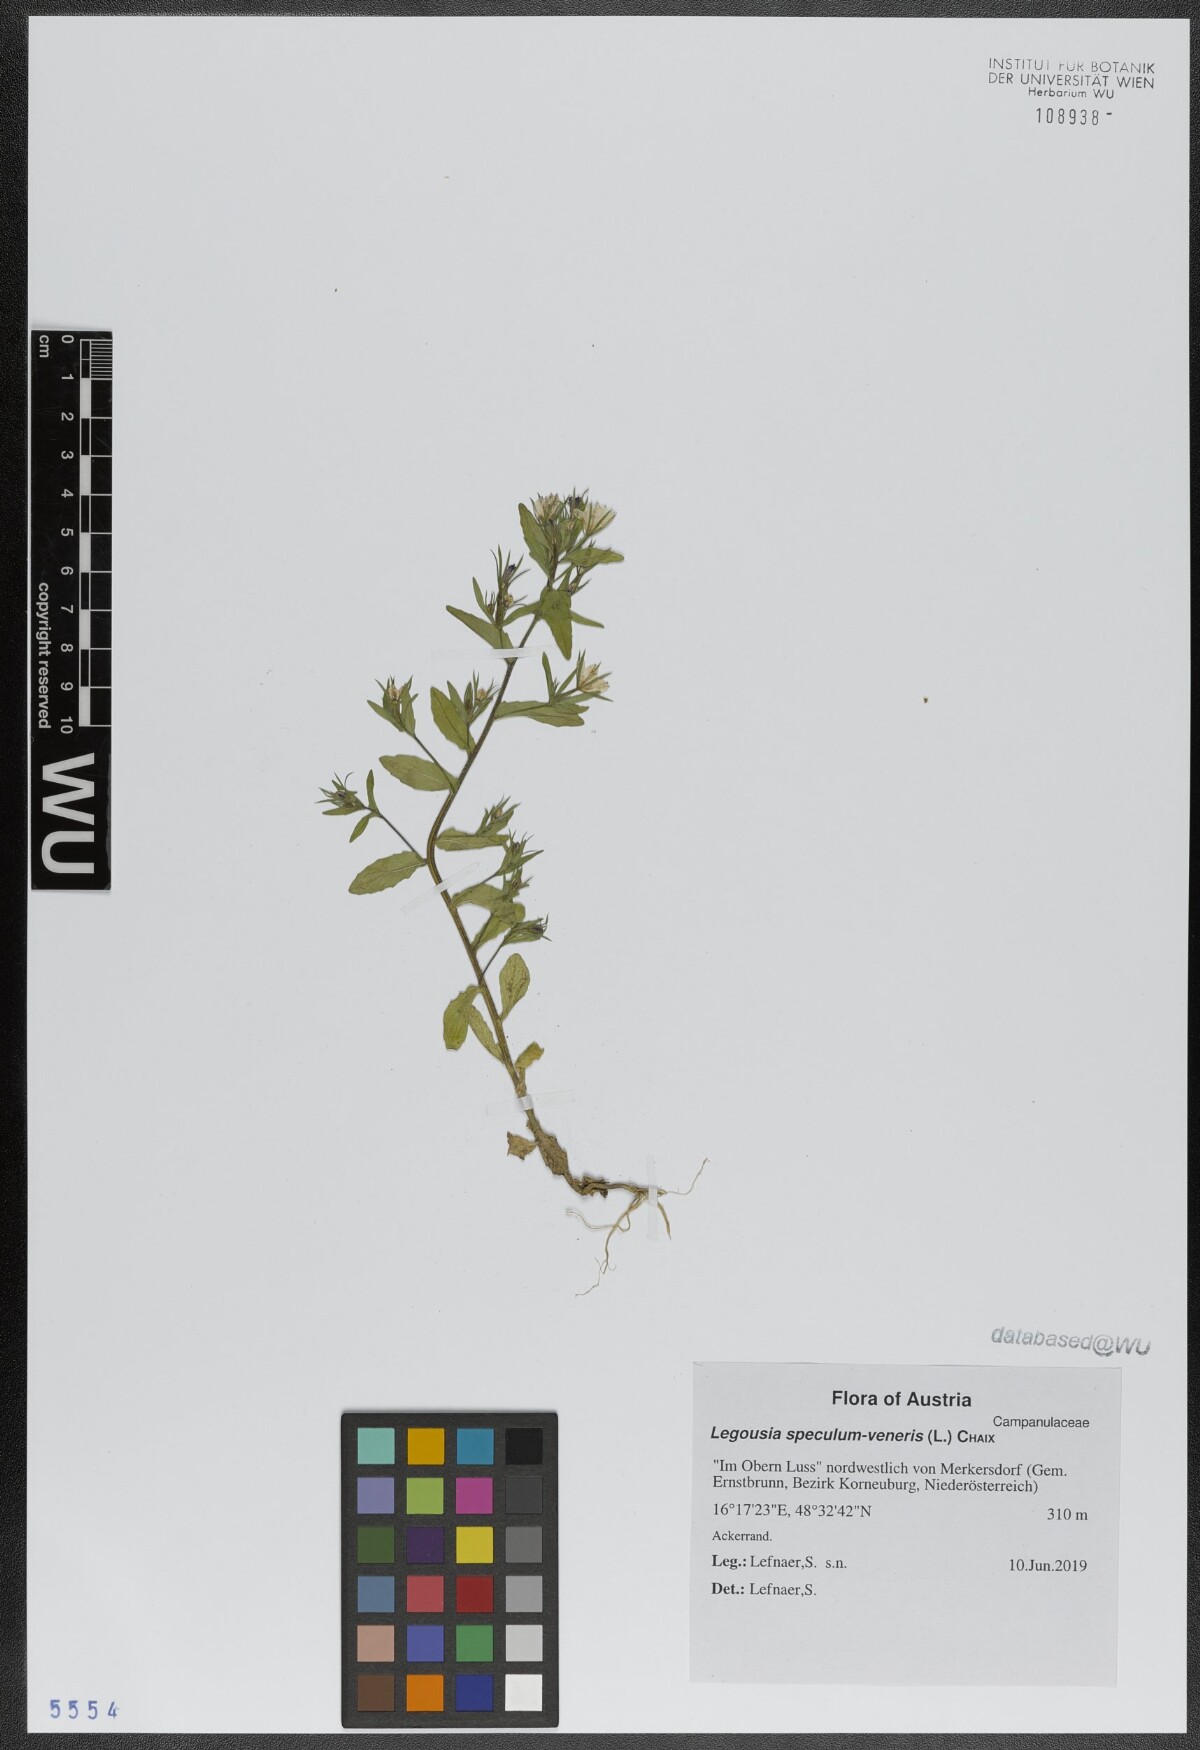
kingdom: Plantae
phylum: Tracheophyta
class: Magnoliopsida
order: Asterales
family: Campanulaceae
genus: Legousia
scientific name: Legousia speculum-veneris
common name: Large venus's-looking-glass
